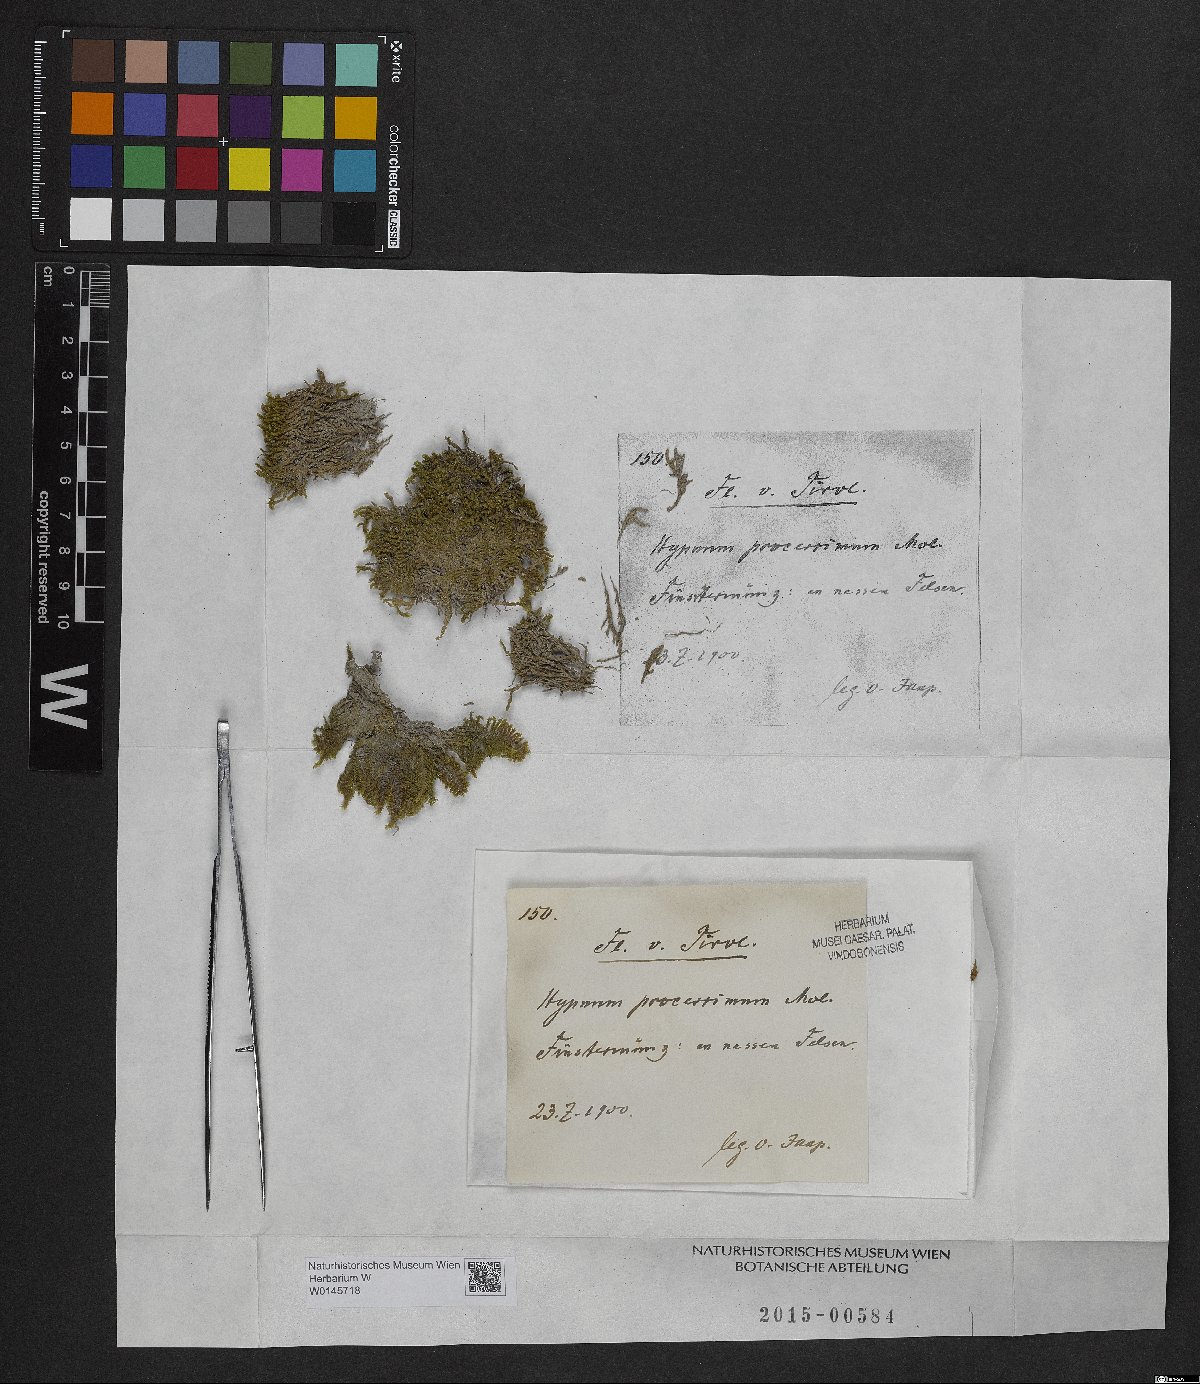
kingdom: Plantae
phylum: Bryophyta
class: Bryopsida
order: Hypnales
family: Pylaisiaceae
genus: Pseudostereodon
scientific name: Pseudostereodon procerrimus
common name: Alpine comb-moss
